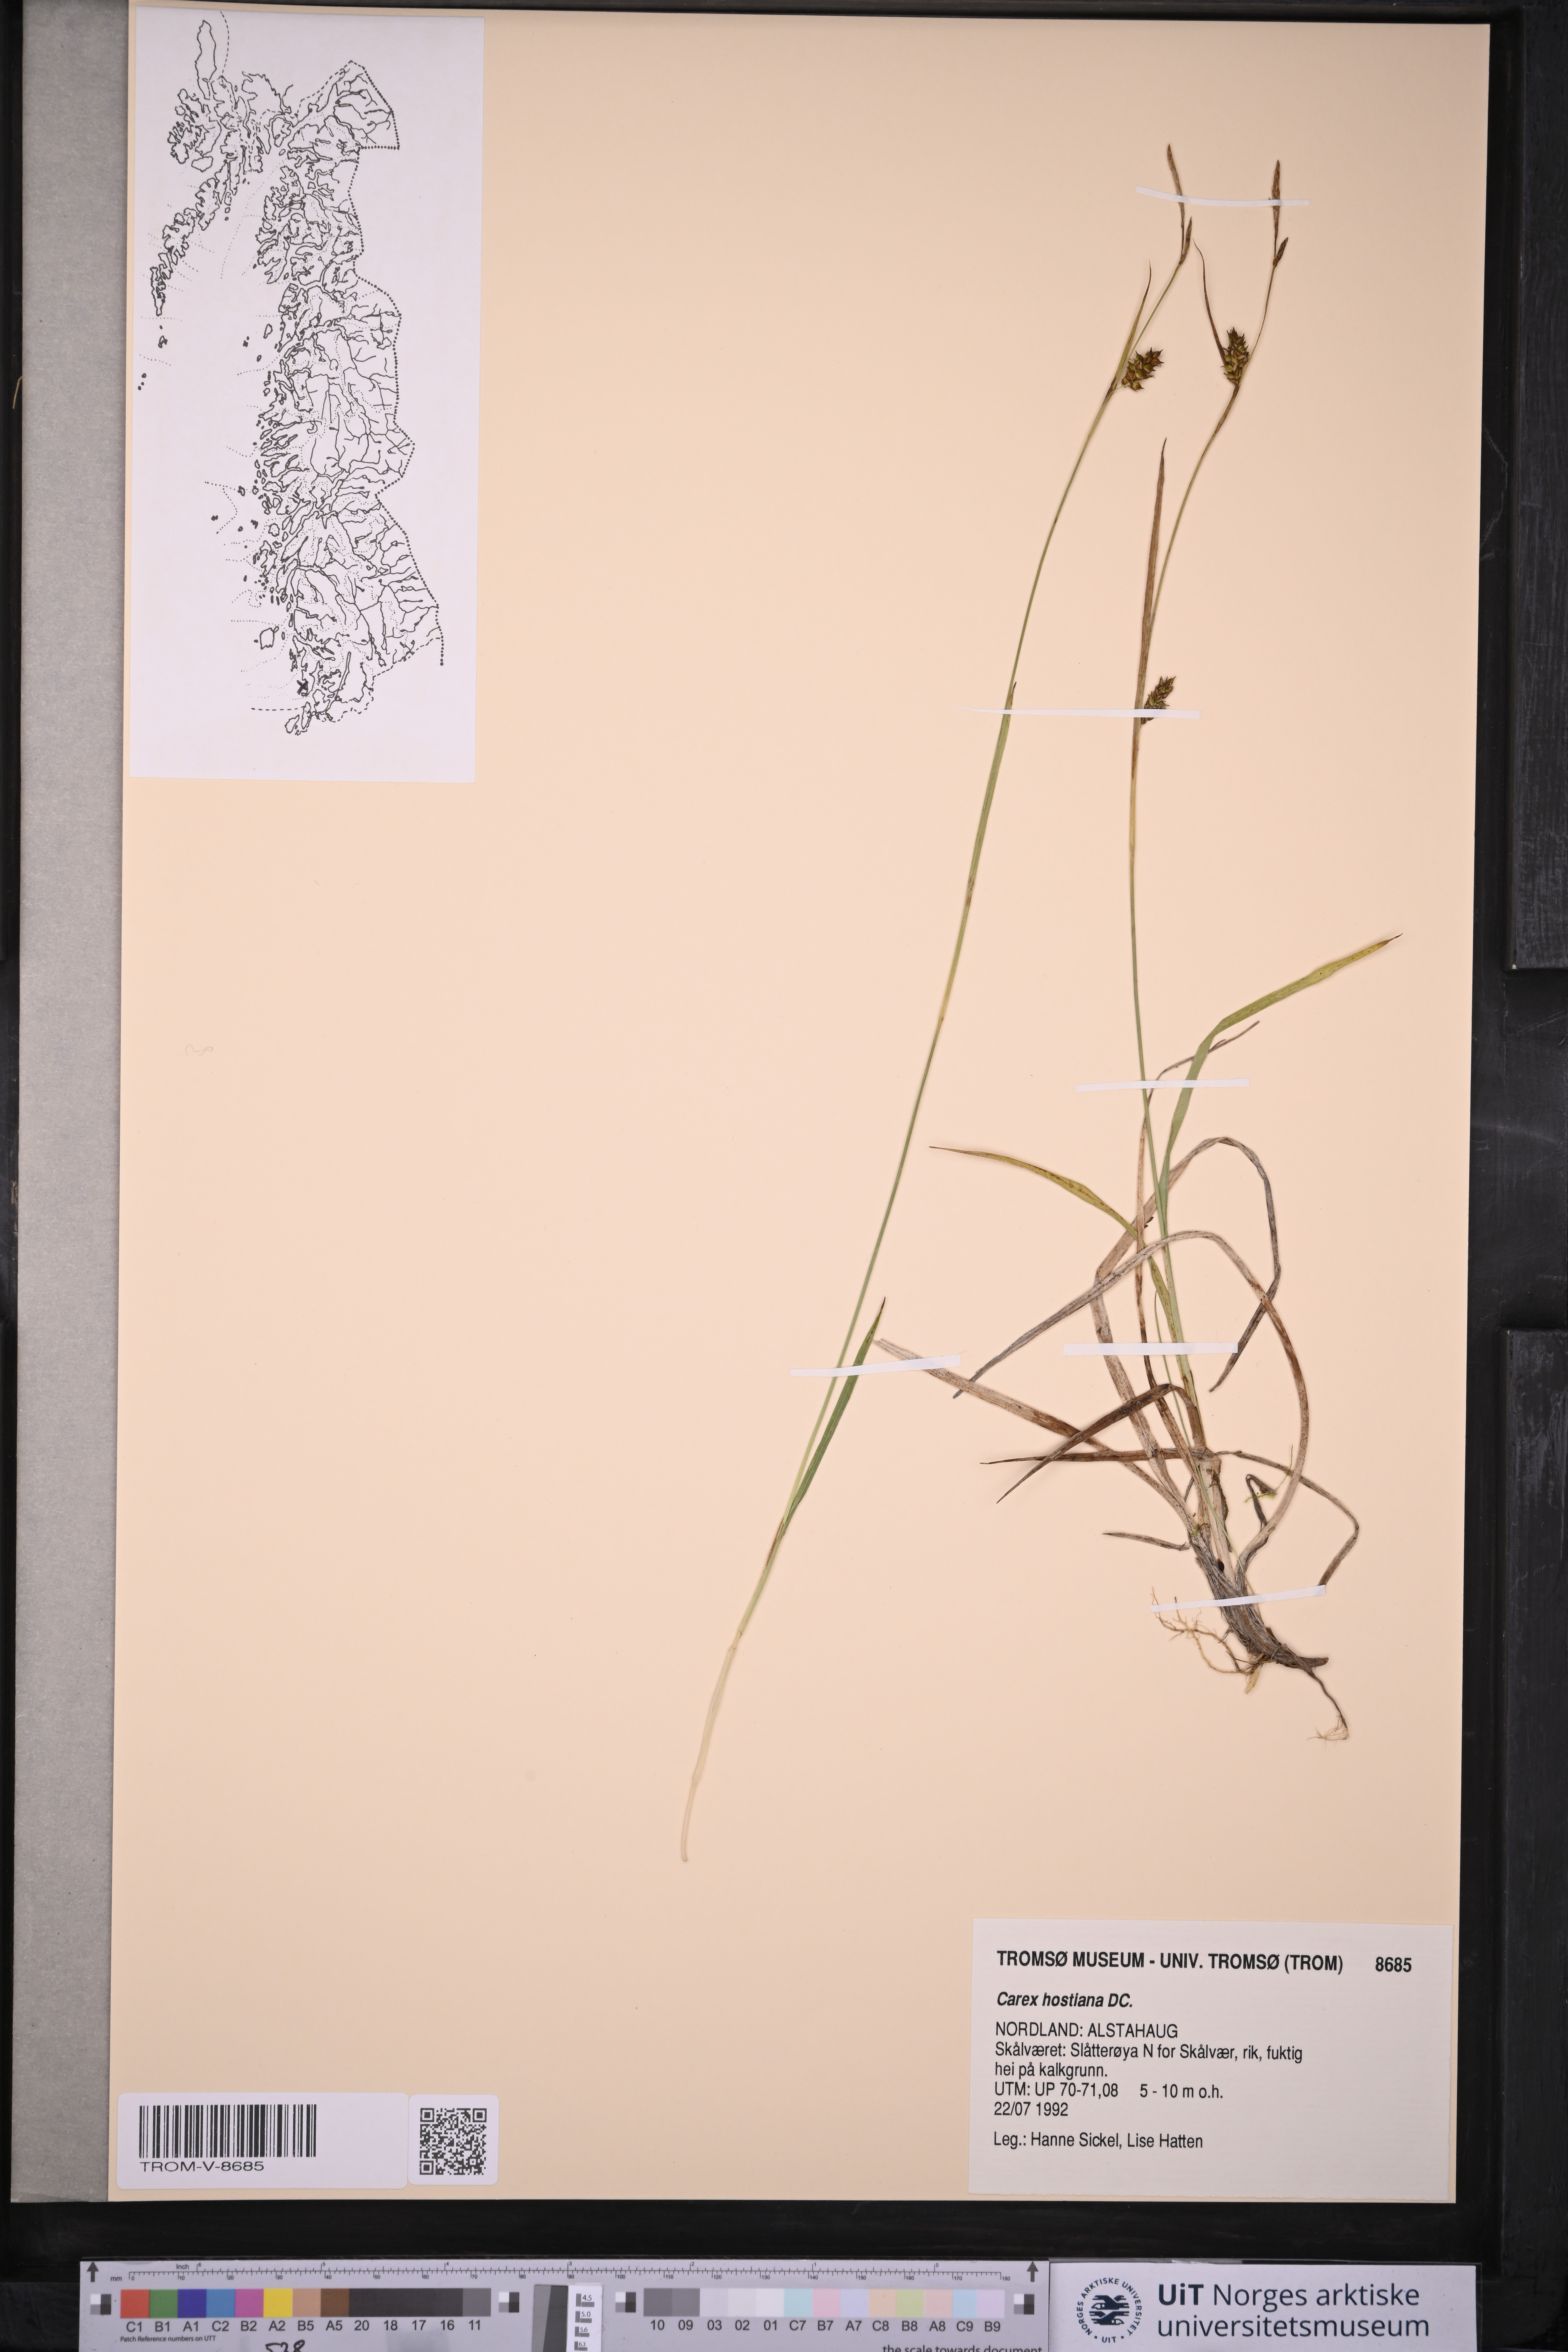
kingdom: Plantae
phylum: Tracheophyta
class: Liliopsida
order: Poales
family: Cyperaceae
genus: Carex
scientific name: Carex hostiana
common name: Tawny sedge
